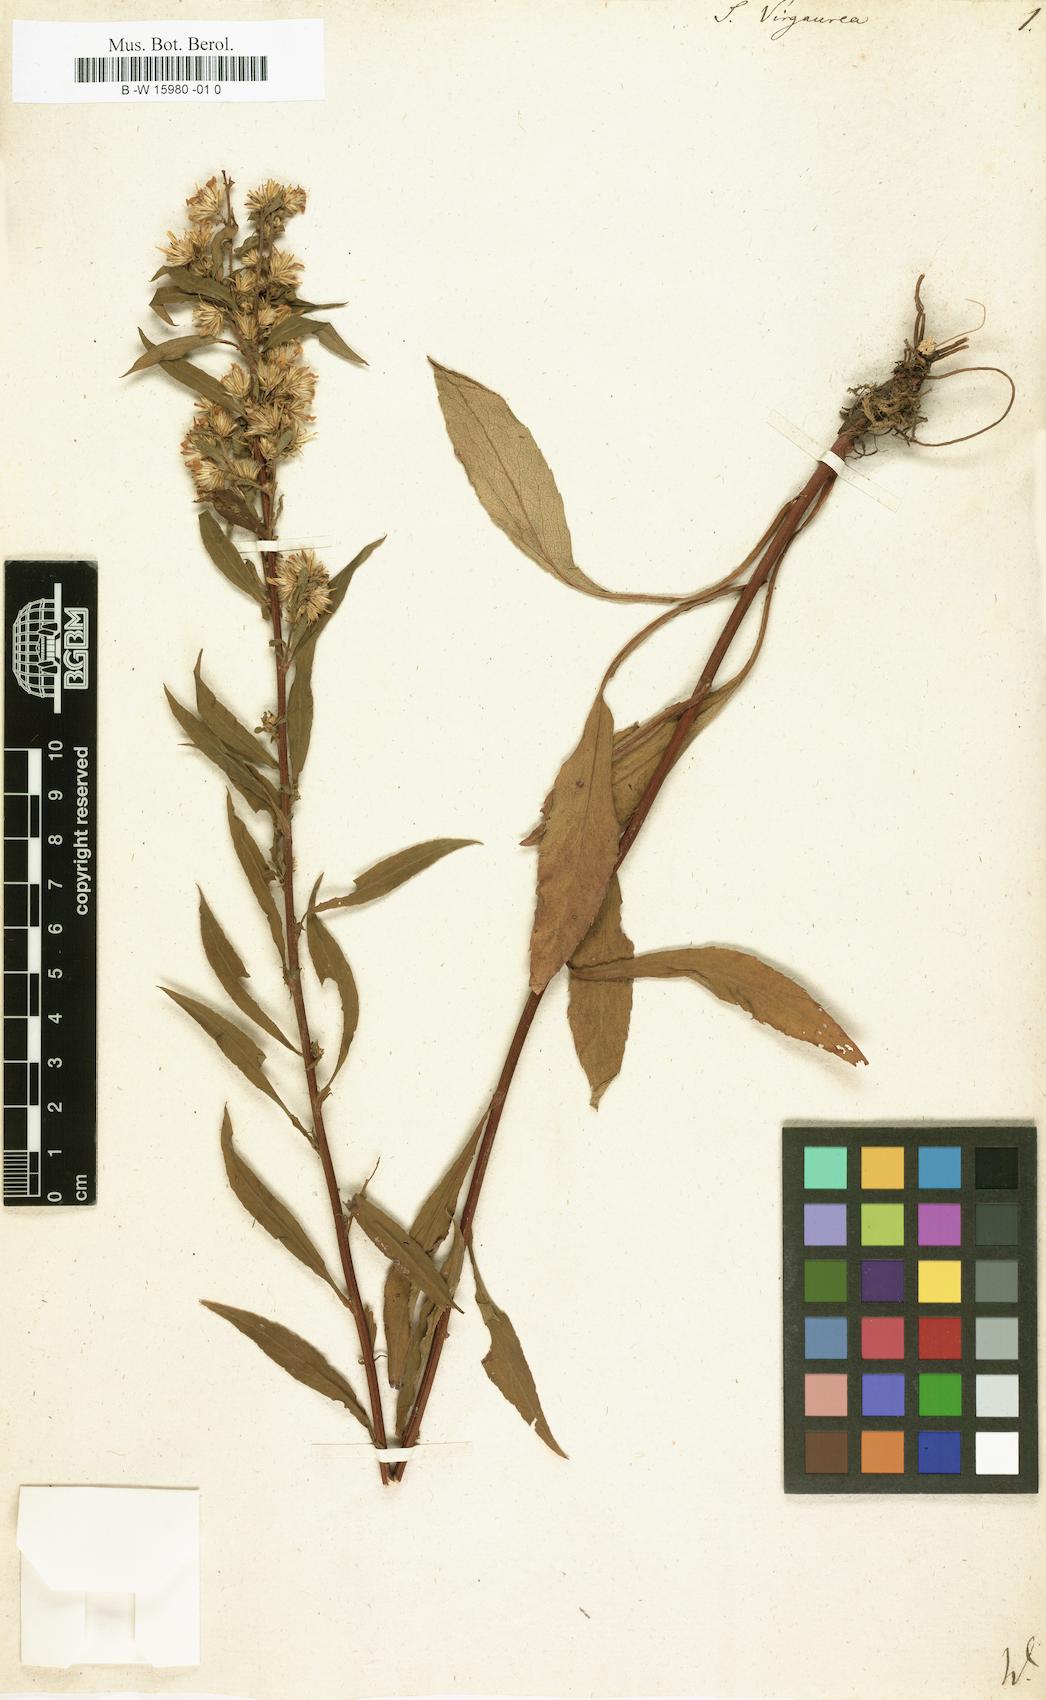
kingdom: Plantae
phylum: Tracheophyta
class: Magnoliopsida
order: Asterales
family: Asteraceae
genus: Solidago
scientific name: Solidago virgaurea
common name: Goldenrod
